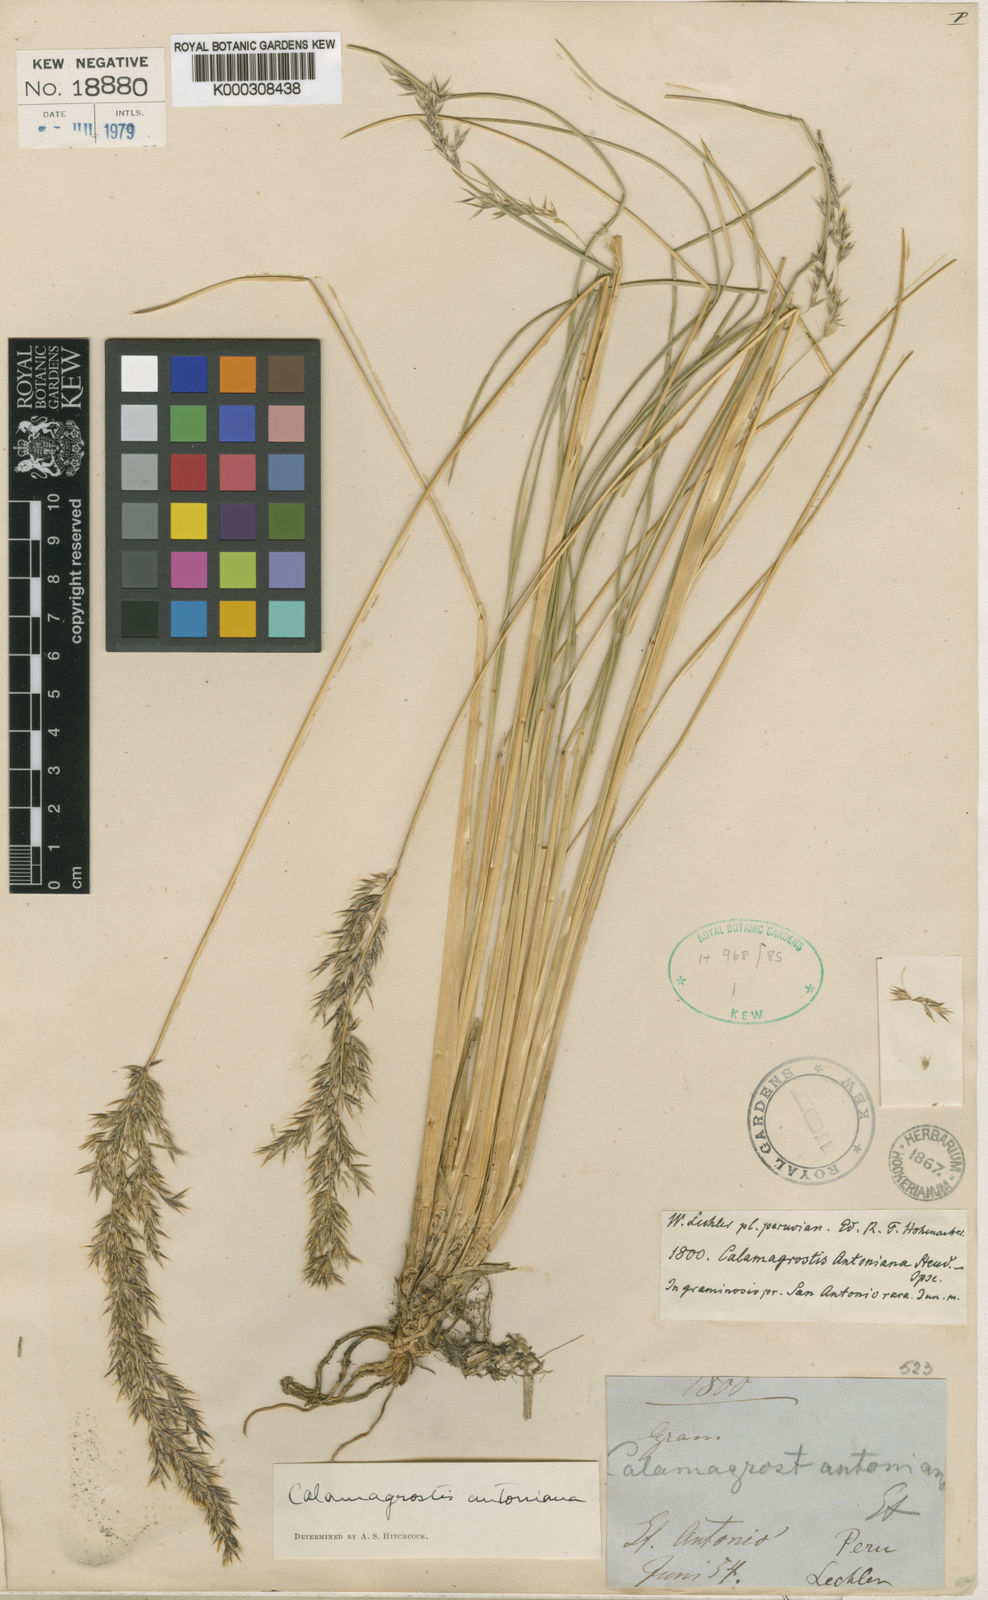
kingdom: Plantae
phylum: Tracheophyta
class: Liliopsida
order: Poales
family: Poaceae
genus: Cinnagrostis
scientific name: Cinnagrostis rigida
